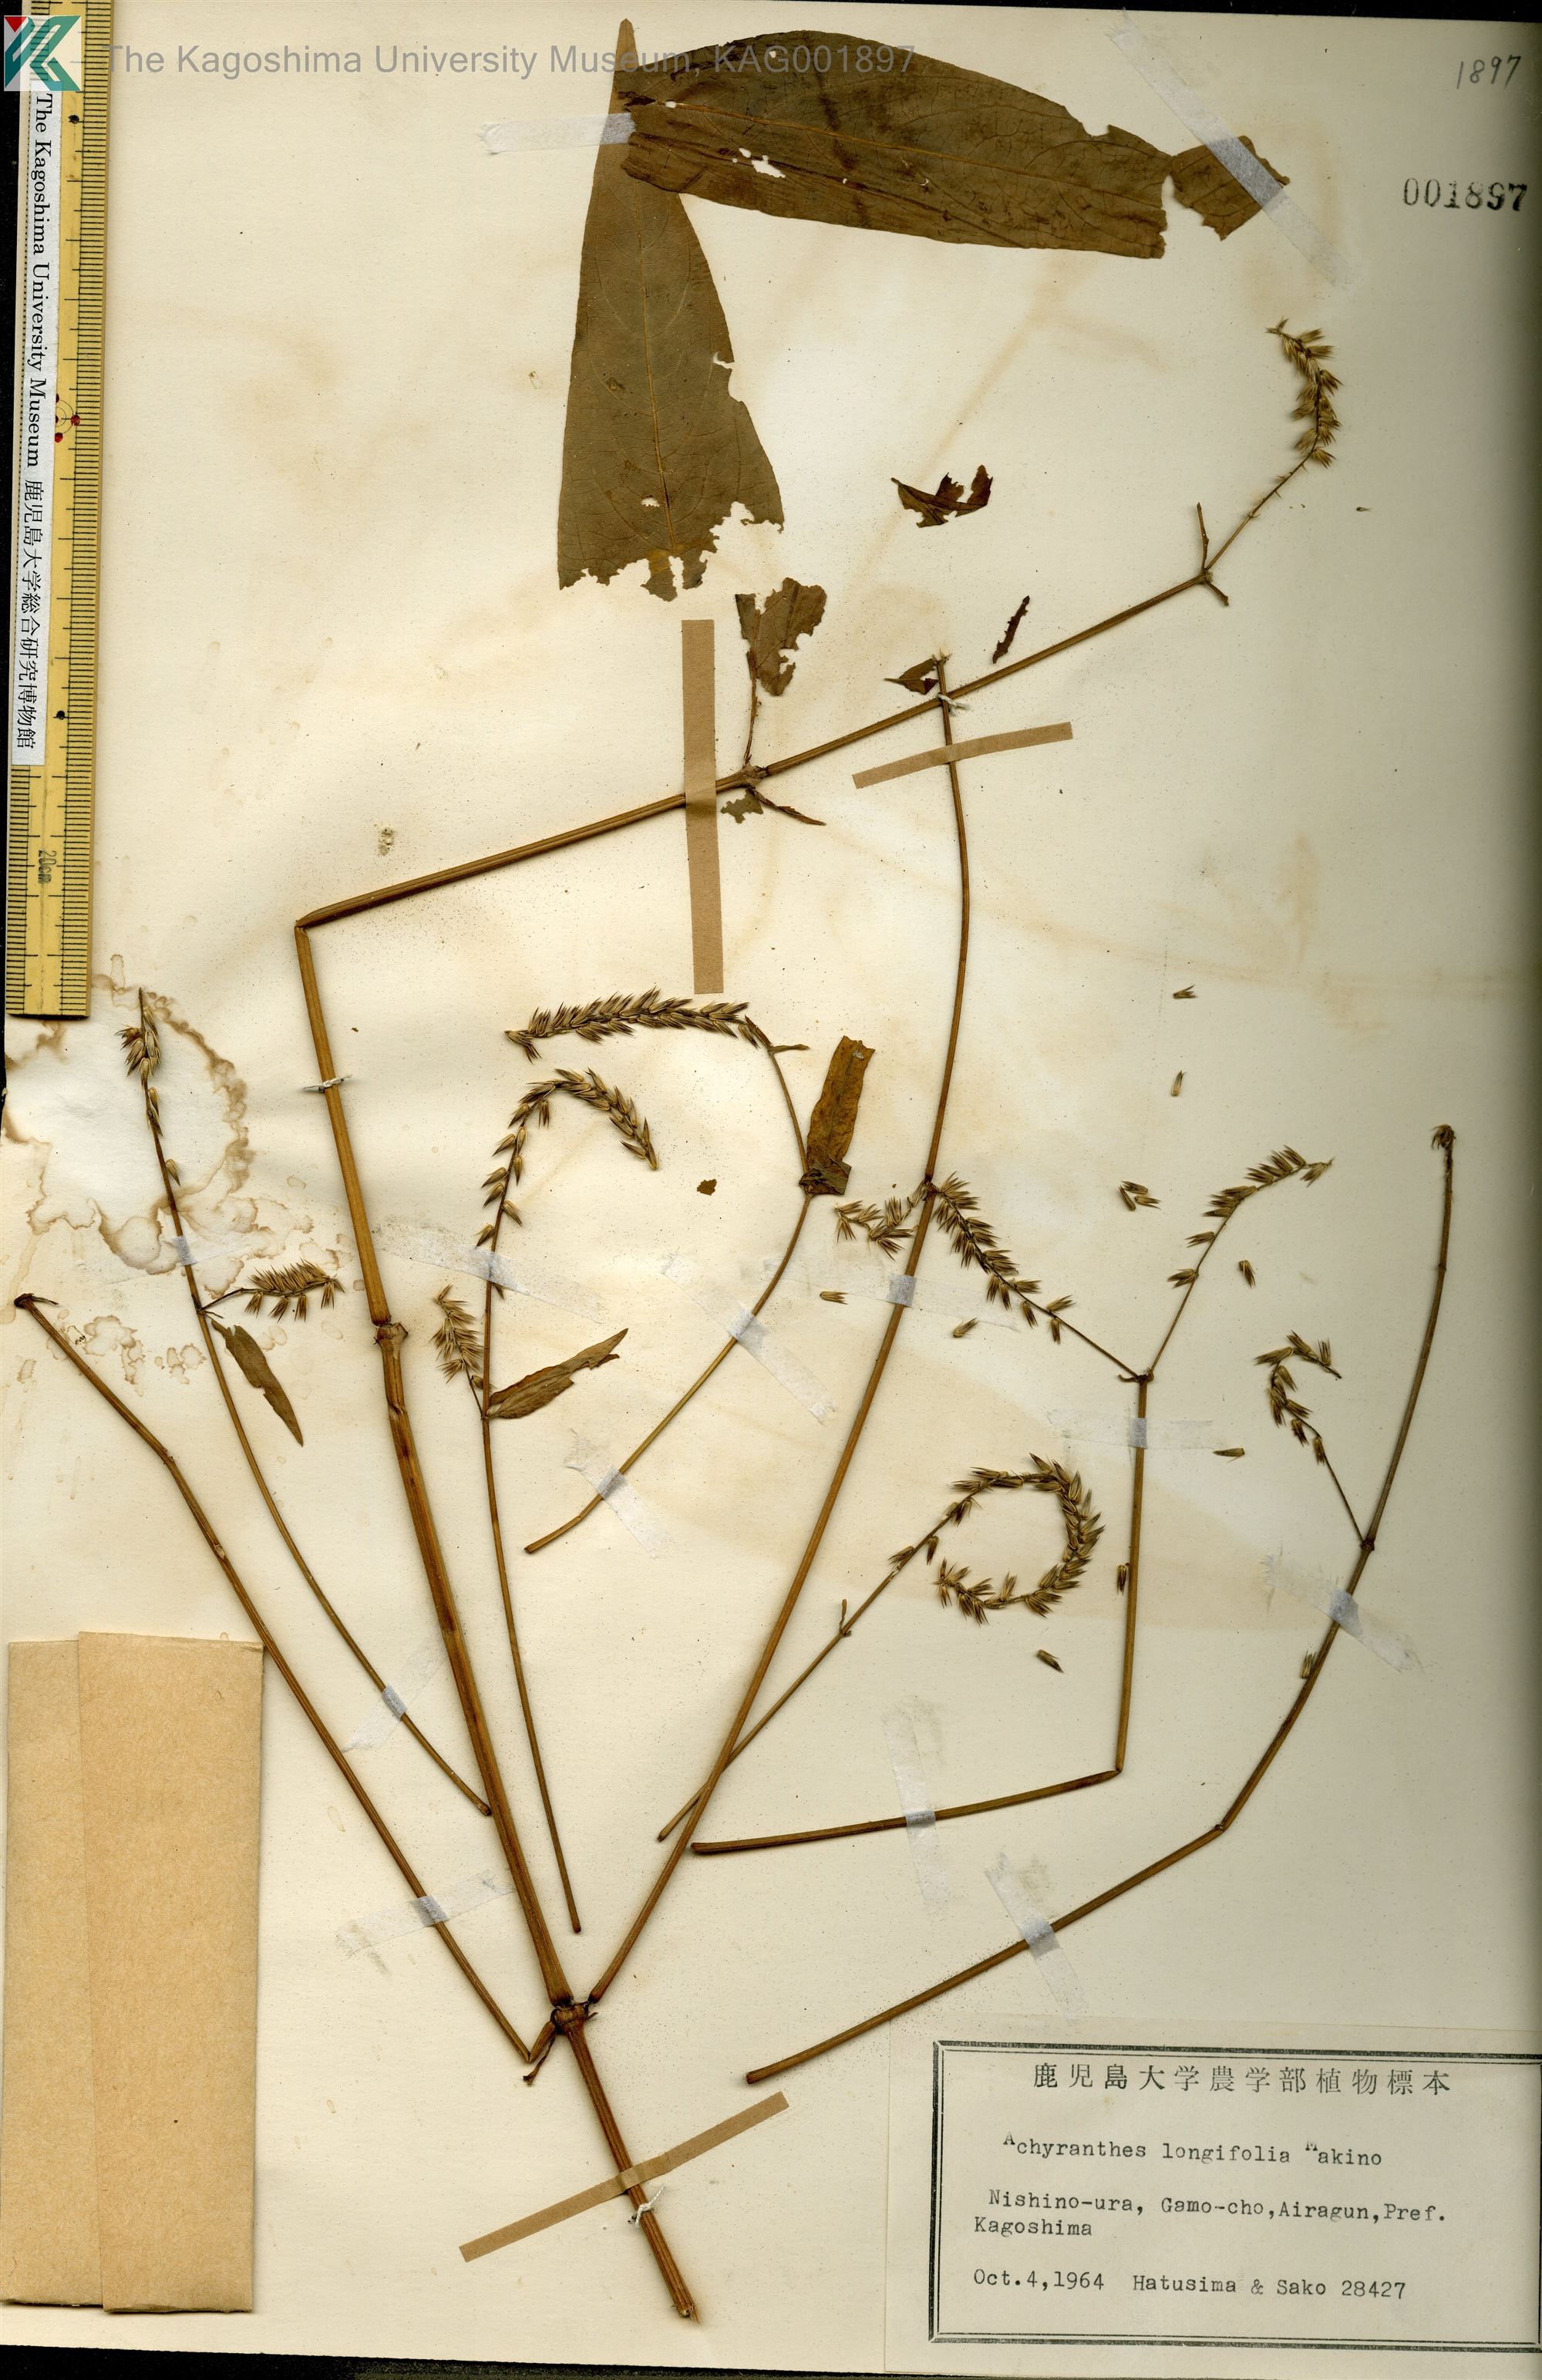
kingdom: Plantae
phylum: Tracheophyta
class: Magnoliopsida
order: Caryophyllales
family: Amaranthaceae
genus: Achyranthes
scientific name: Achyranthes bidentata
